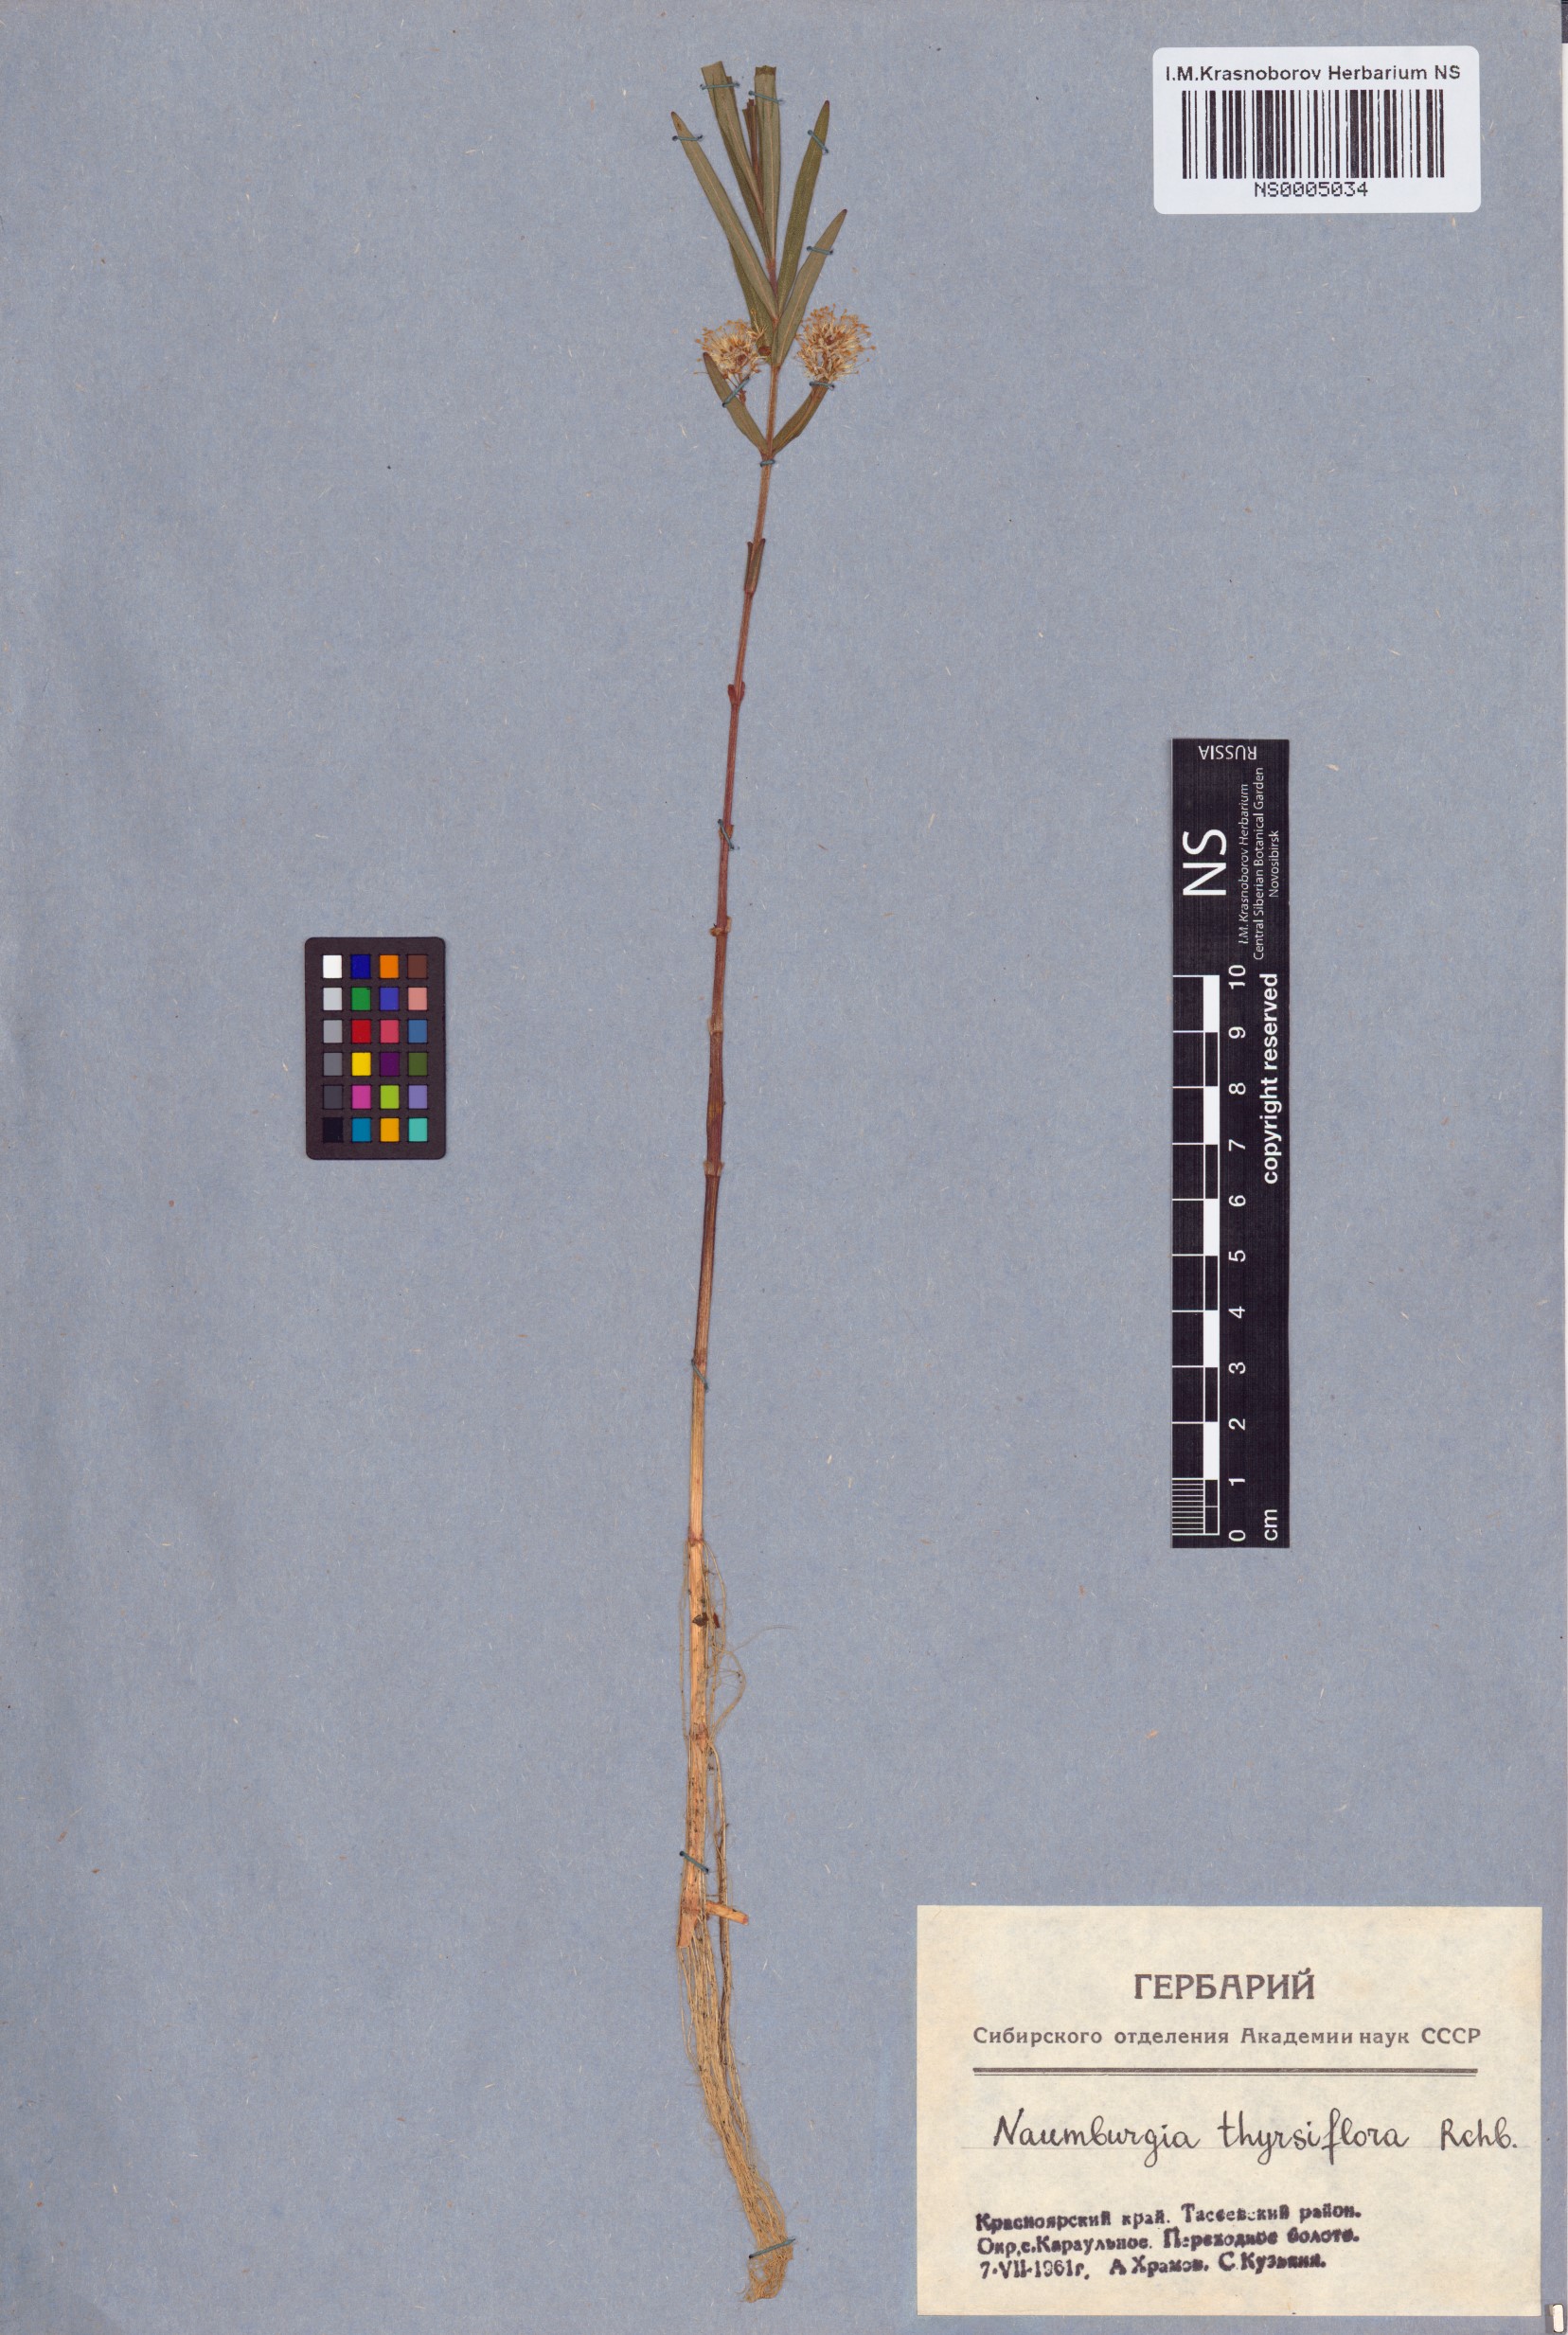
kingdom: Plantae
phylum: Tracheophyta
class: Magnoliopsida
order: Ericales
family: Primulaceae
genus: Lysimachia
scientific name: Lysimachia thyrsiflora
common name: Tufted loosestrife
